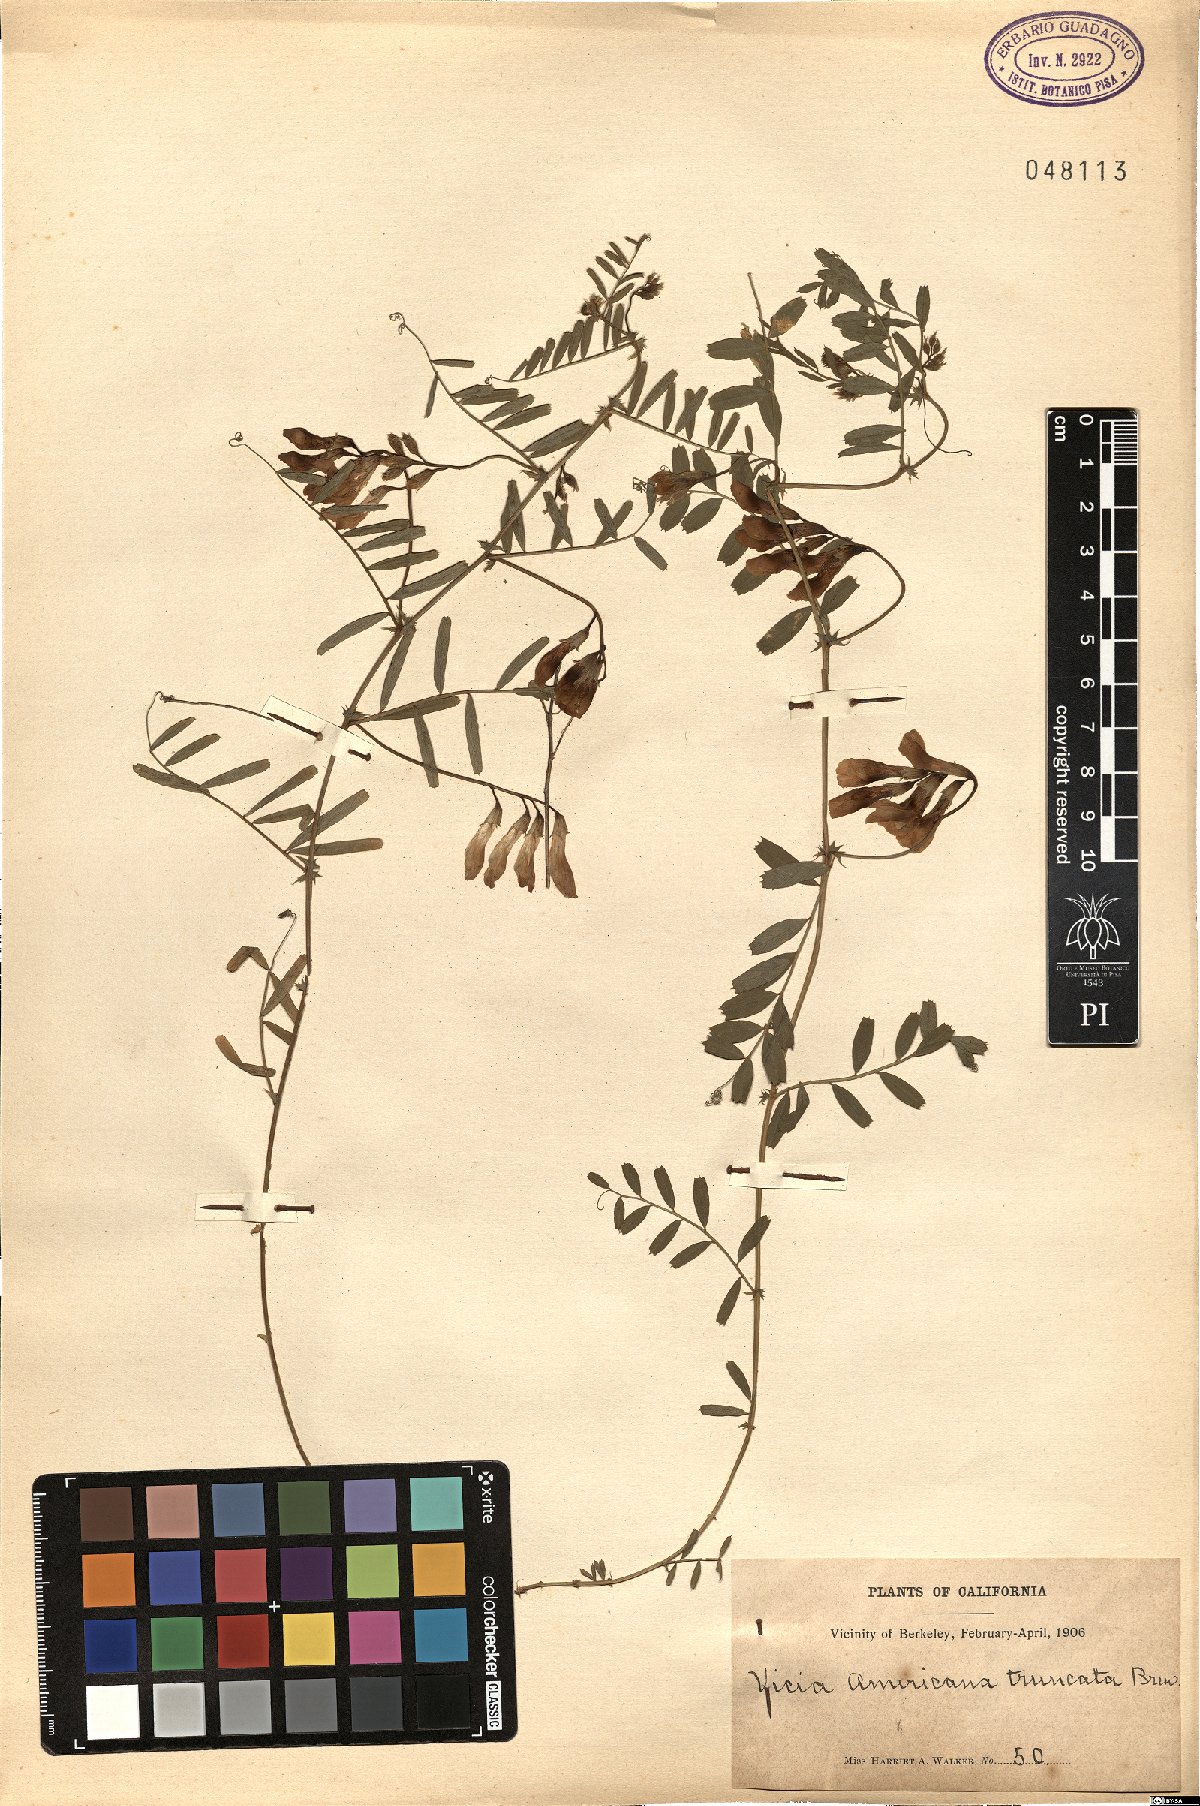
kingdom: Plantae
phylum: Tracheophyta
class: Magnoliopsida
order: Fabales
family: Fabaceae
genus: Vicia
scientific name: Vicia americana
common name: American vetch
